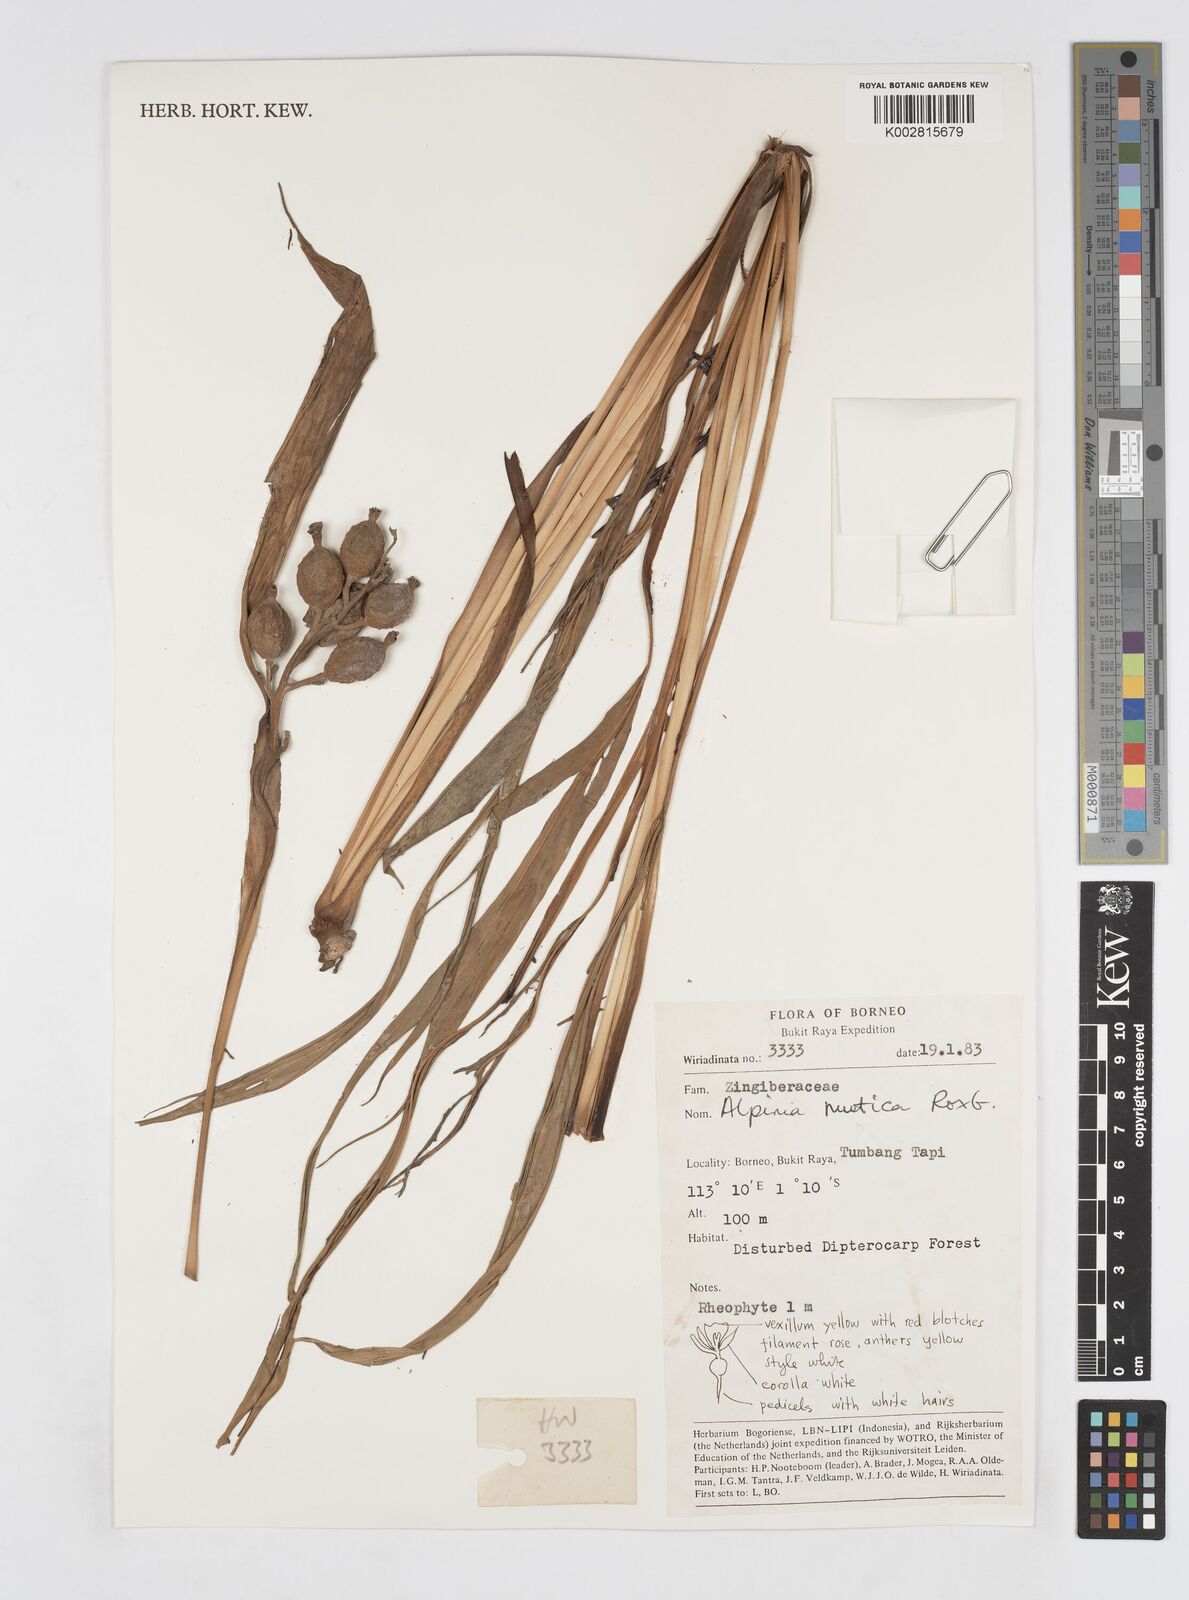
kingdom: Plantae
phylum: Tracheophyta
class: Liliopsida
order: Zingiberales
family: Zingiberaceae
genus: Alpinia
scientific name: Alpinia mutica
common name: Small shell ginger
